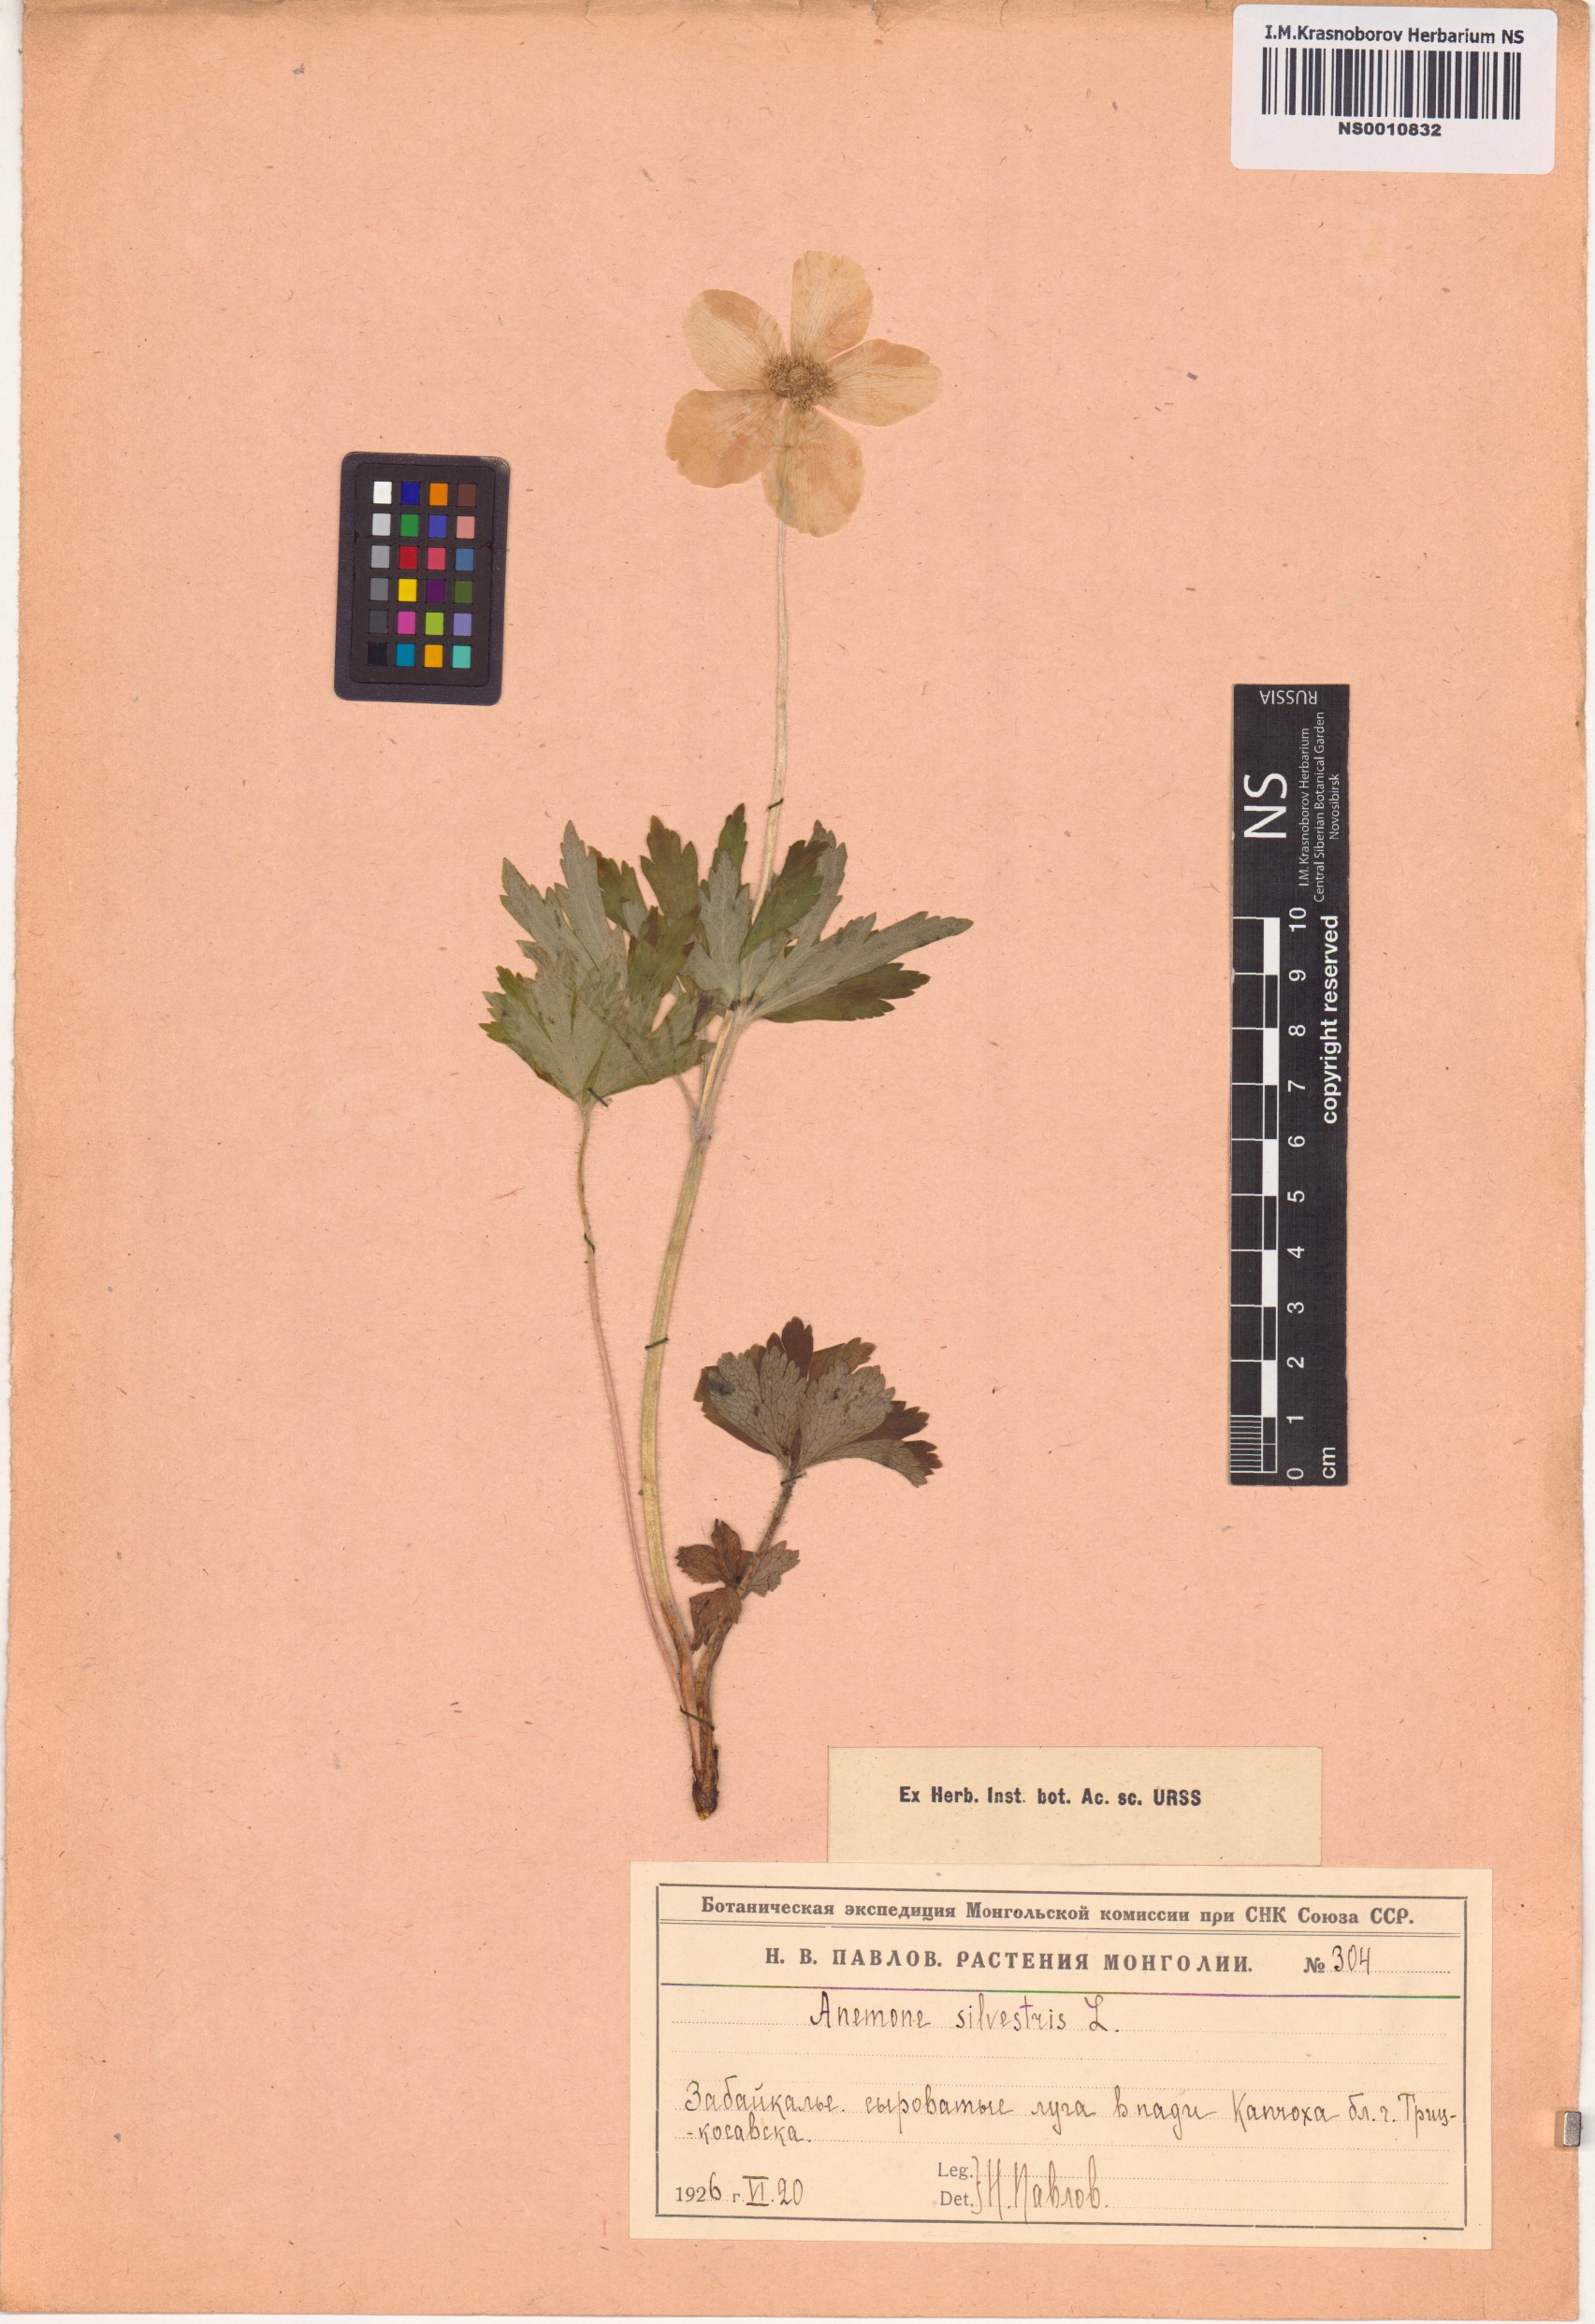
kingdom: Plantae
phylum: Tracheophyta
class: Magnoliopsida
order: Ranunculales
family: Ranunculaceae
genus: Anemone
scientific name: Anemone sylvestris
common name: Snowdrop anemone
